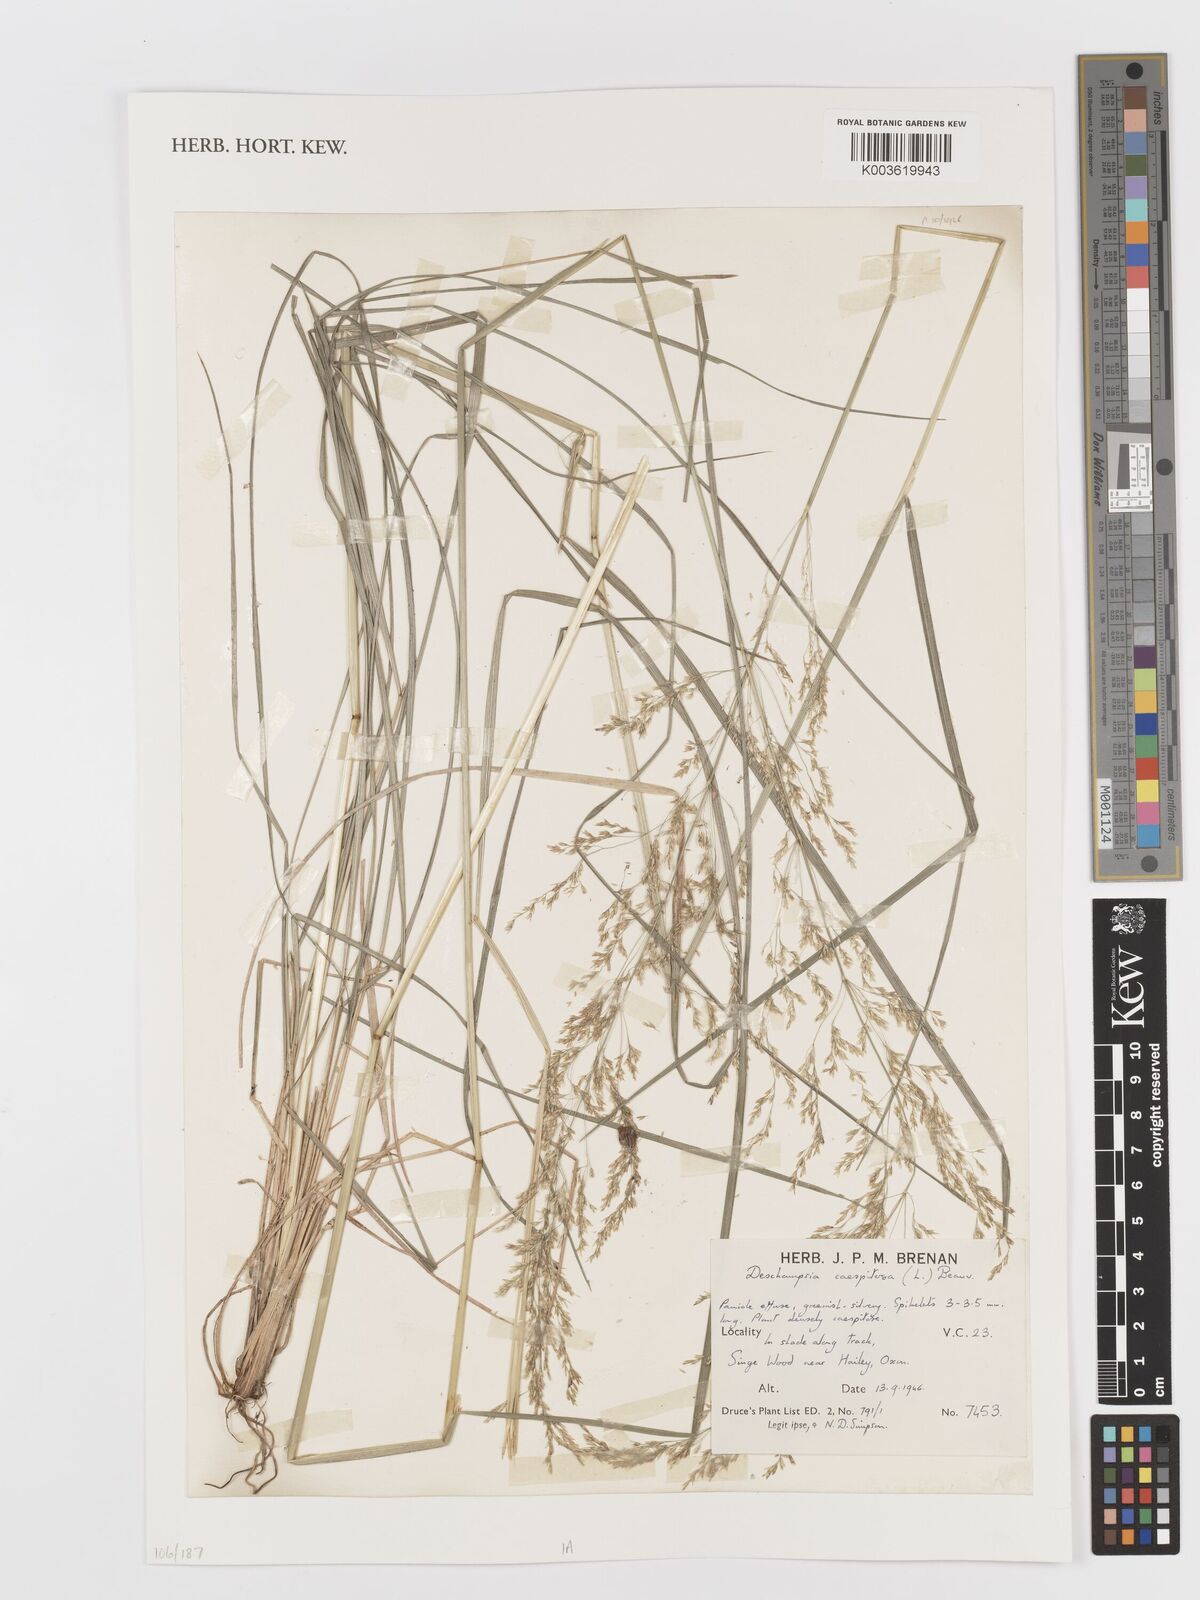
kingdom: Plantae
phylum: Tracheophyta
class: Liliopsida
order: Poales
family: Poaceae
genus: Deschampsia
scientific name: Deschampsia
